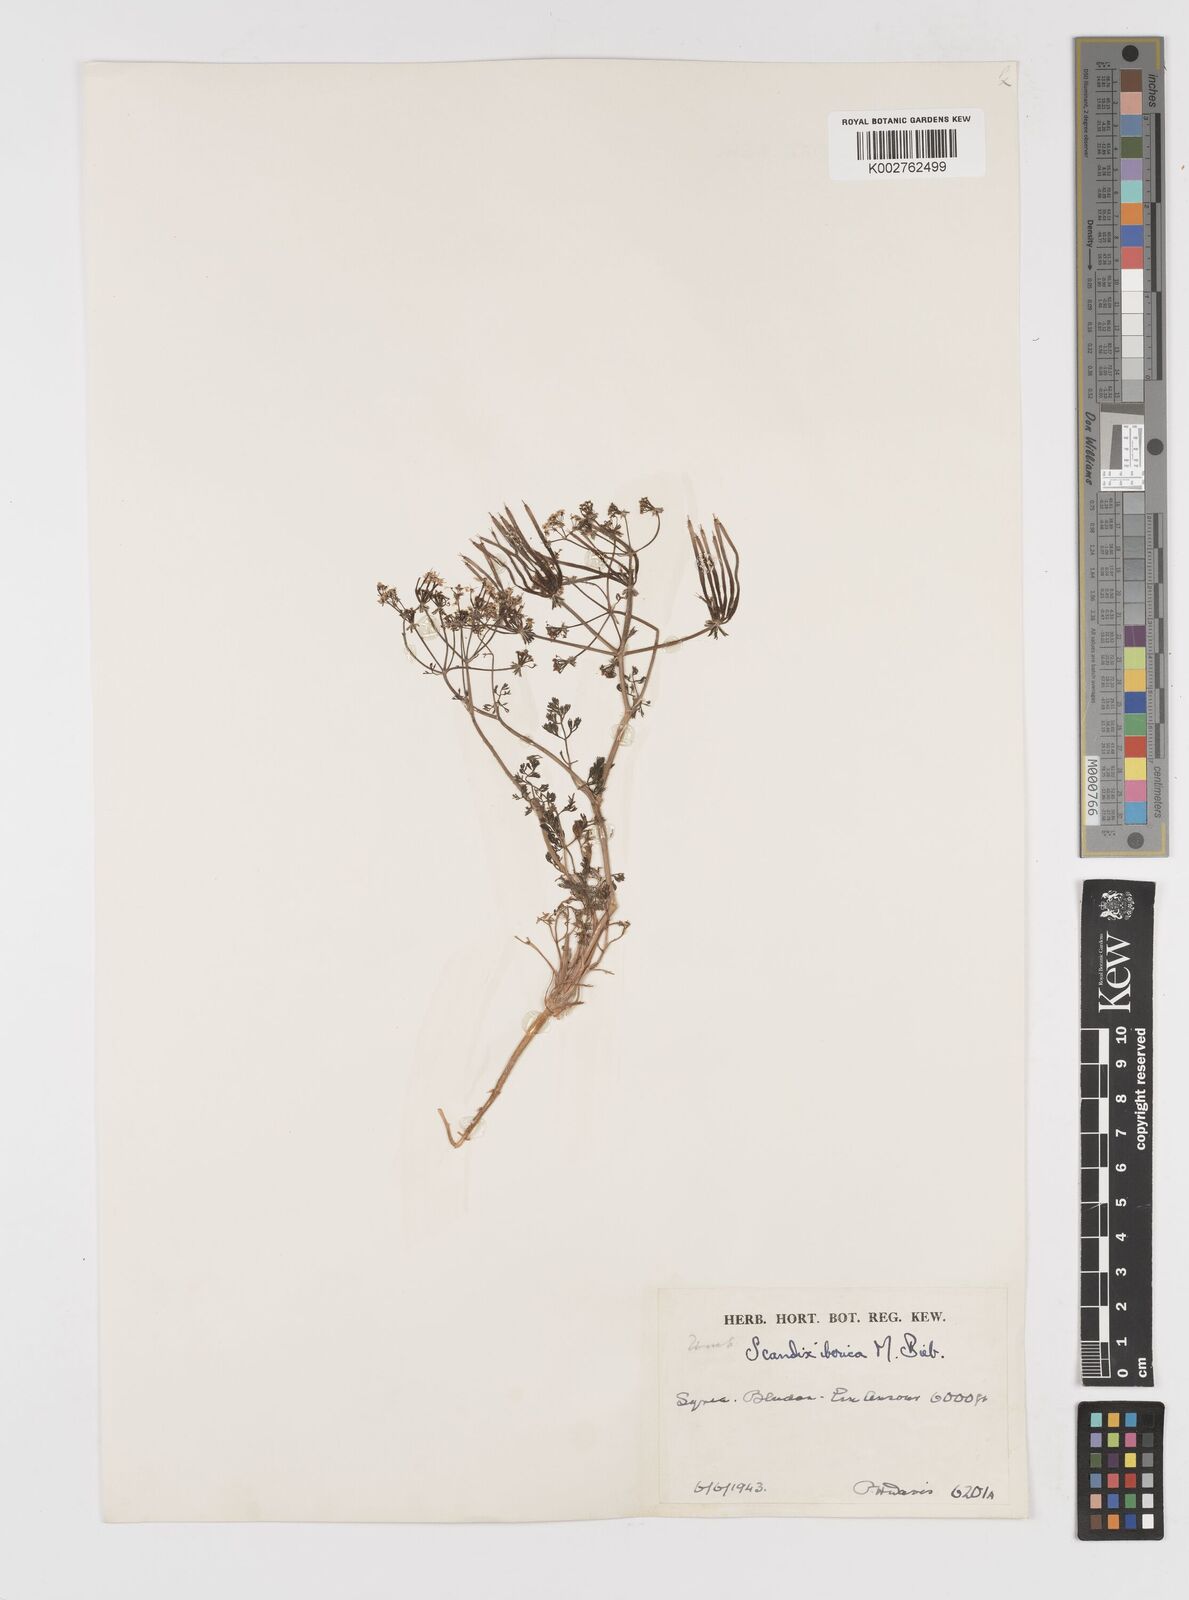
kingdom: Plantae
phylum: Tracheophyta
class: Magnoliopsida
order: Apiales
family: Apiaceae
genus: Scandix
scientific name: Scandix iberica
